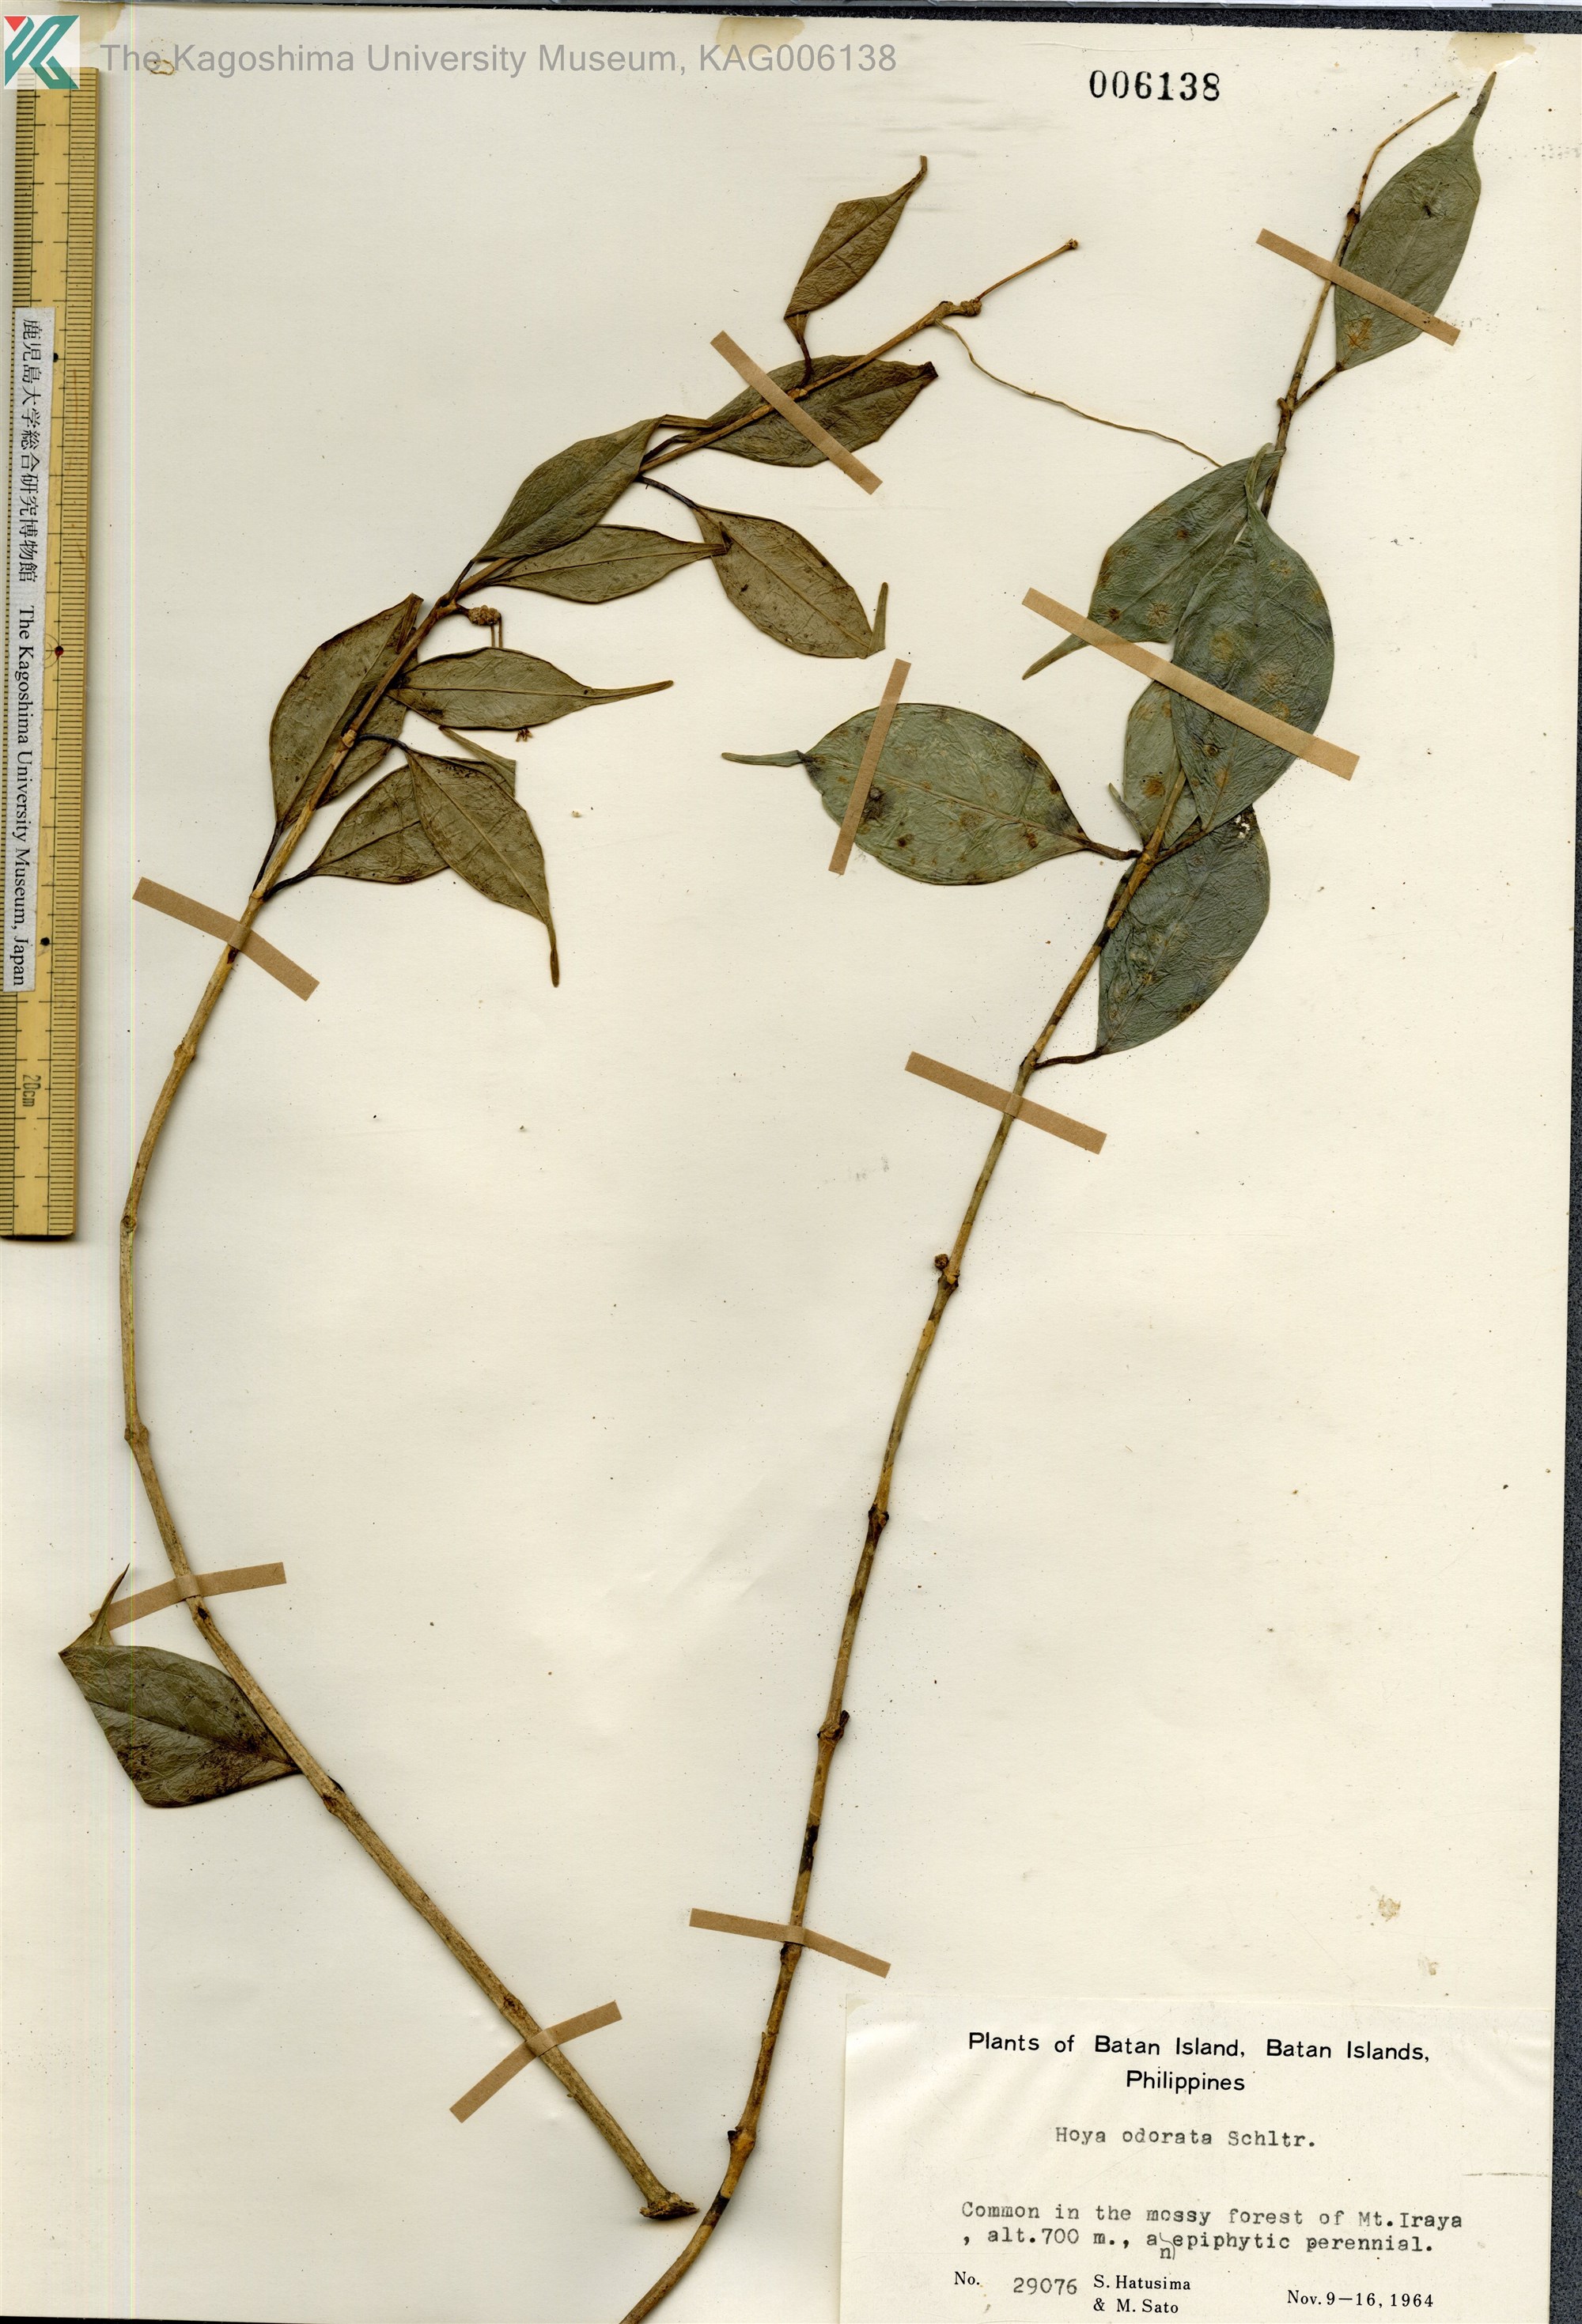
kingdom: Plantae
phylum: Tracheophyta
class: Magnoliopsida
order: Gentianales
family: Apocynaceae
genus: Hoya
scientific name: Hoya odorata
